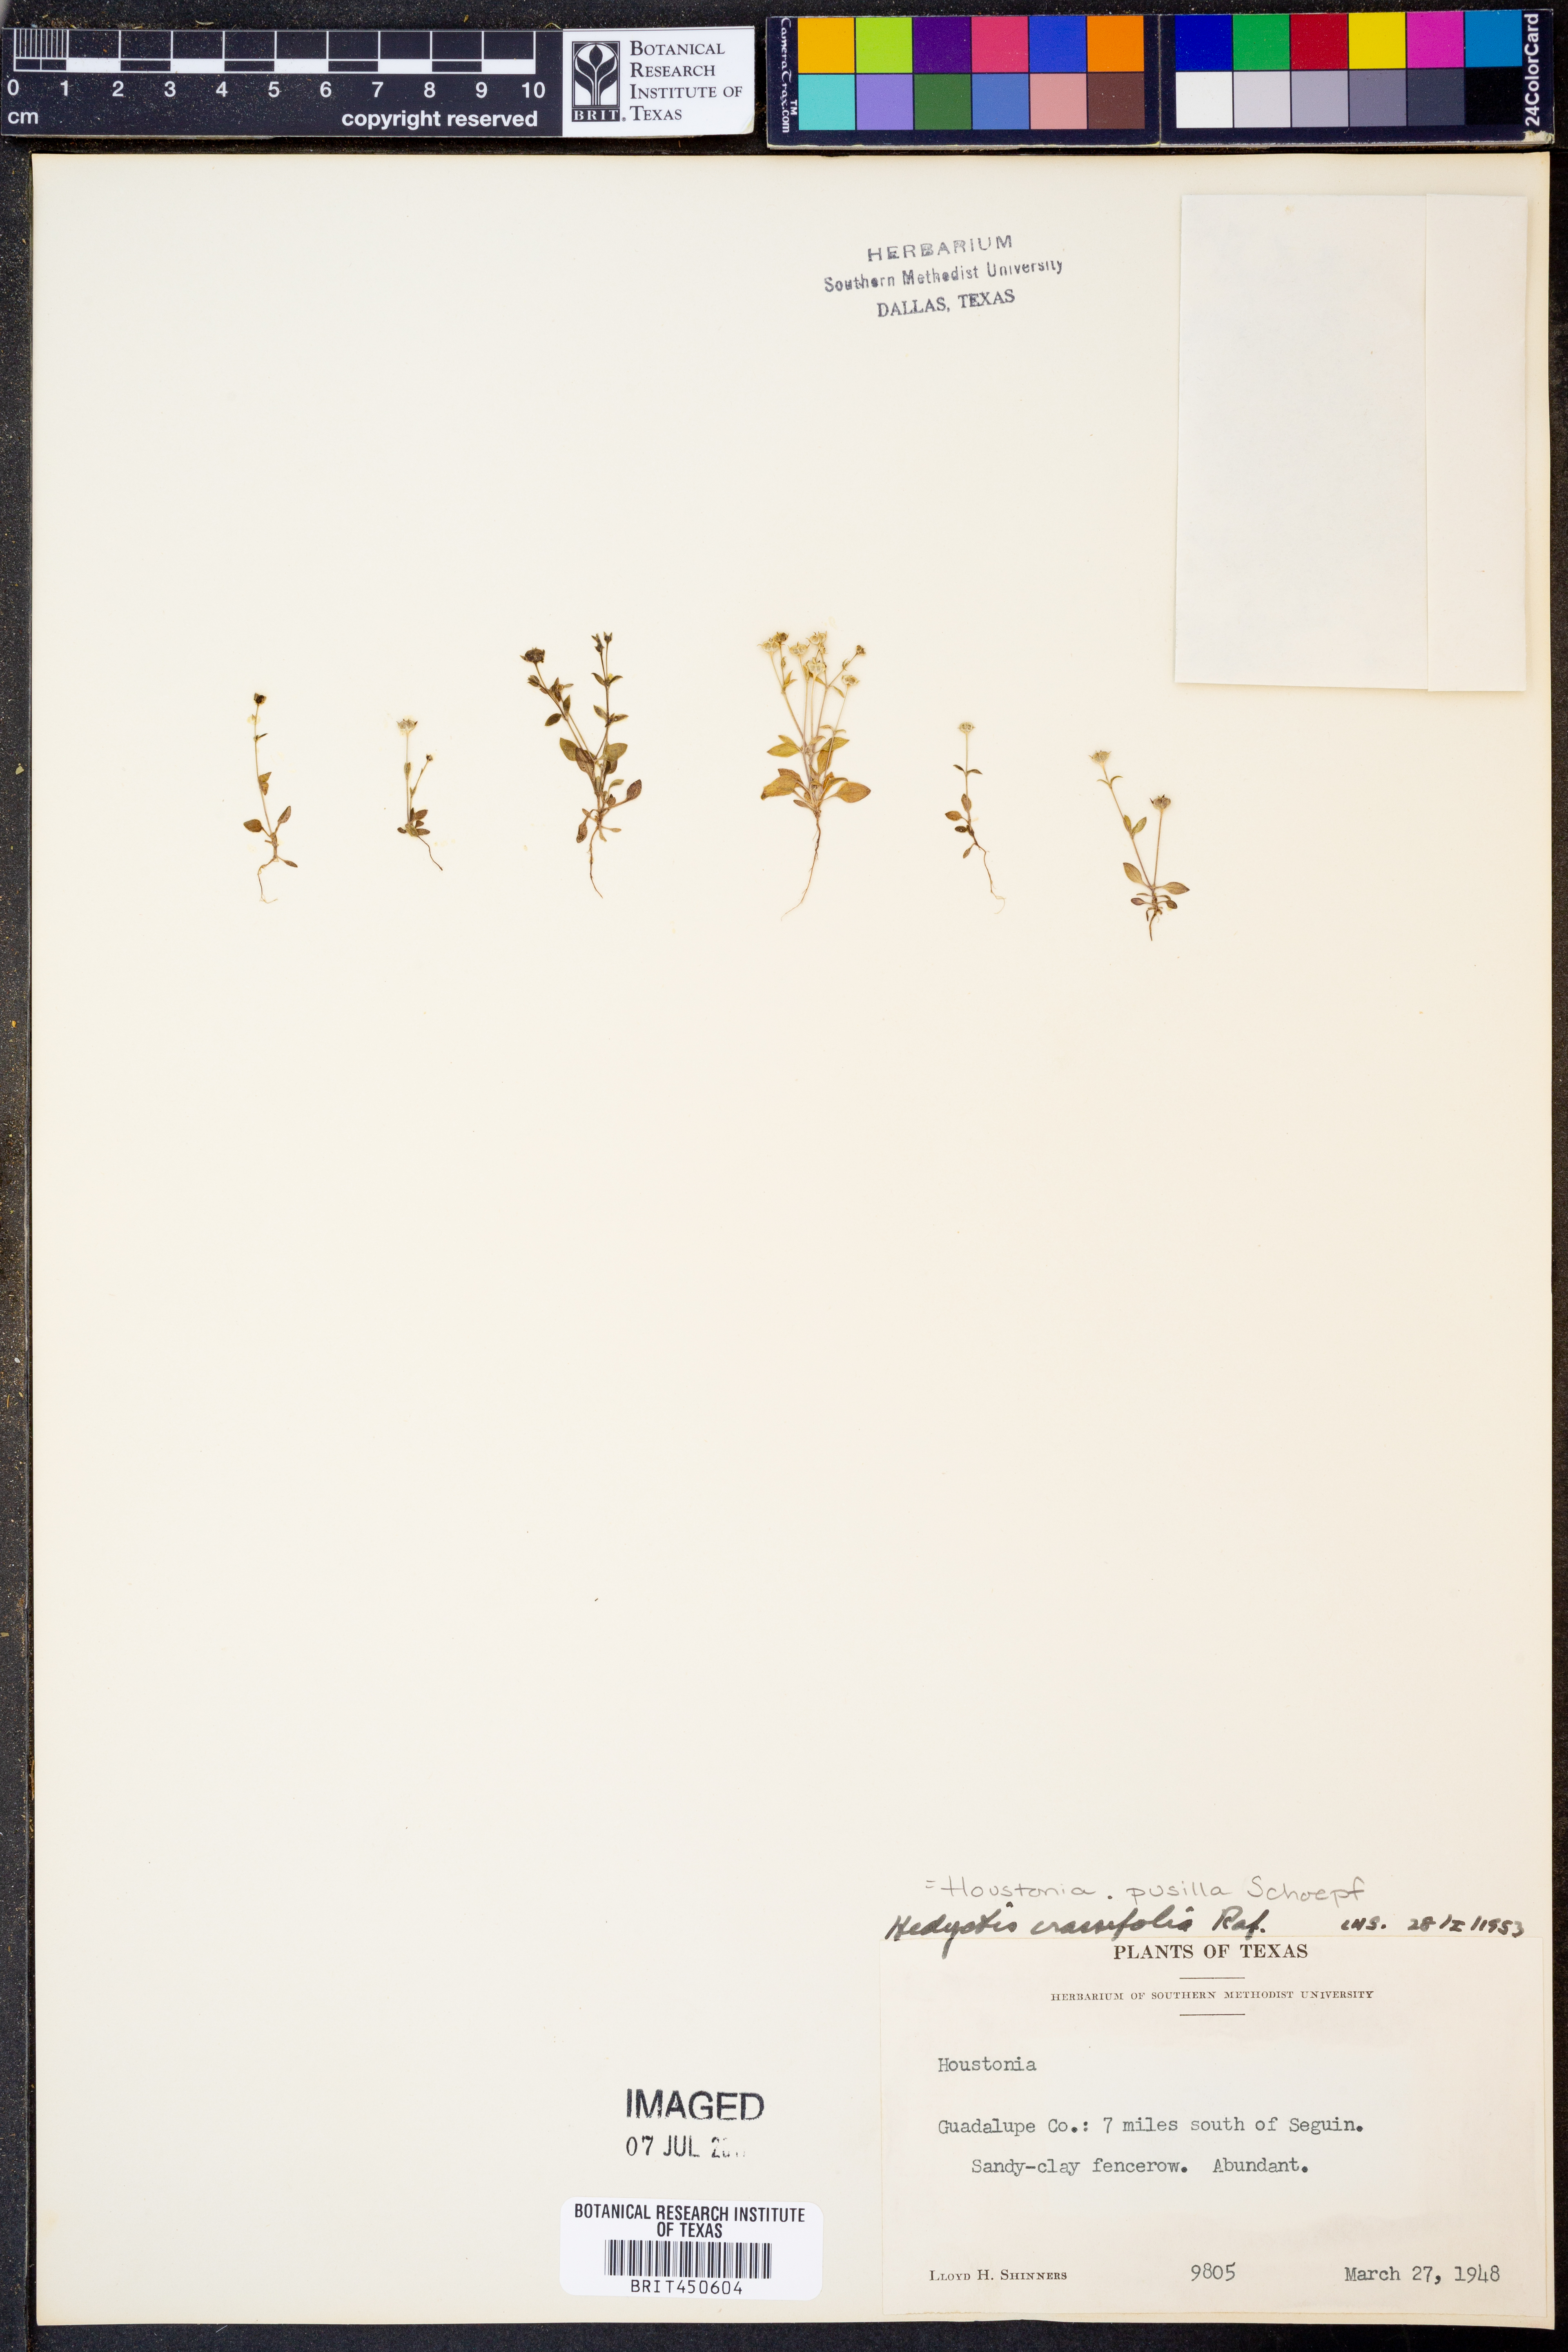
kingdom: Plantae
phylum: Tracheophyta
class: Magnoliopsida
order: Gentianales
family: Rubiaceae
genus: Houstonia
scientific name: Houstonia pusilla
